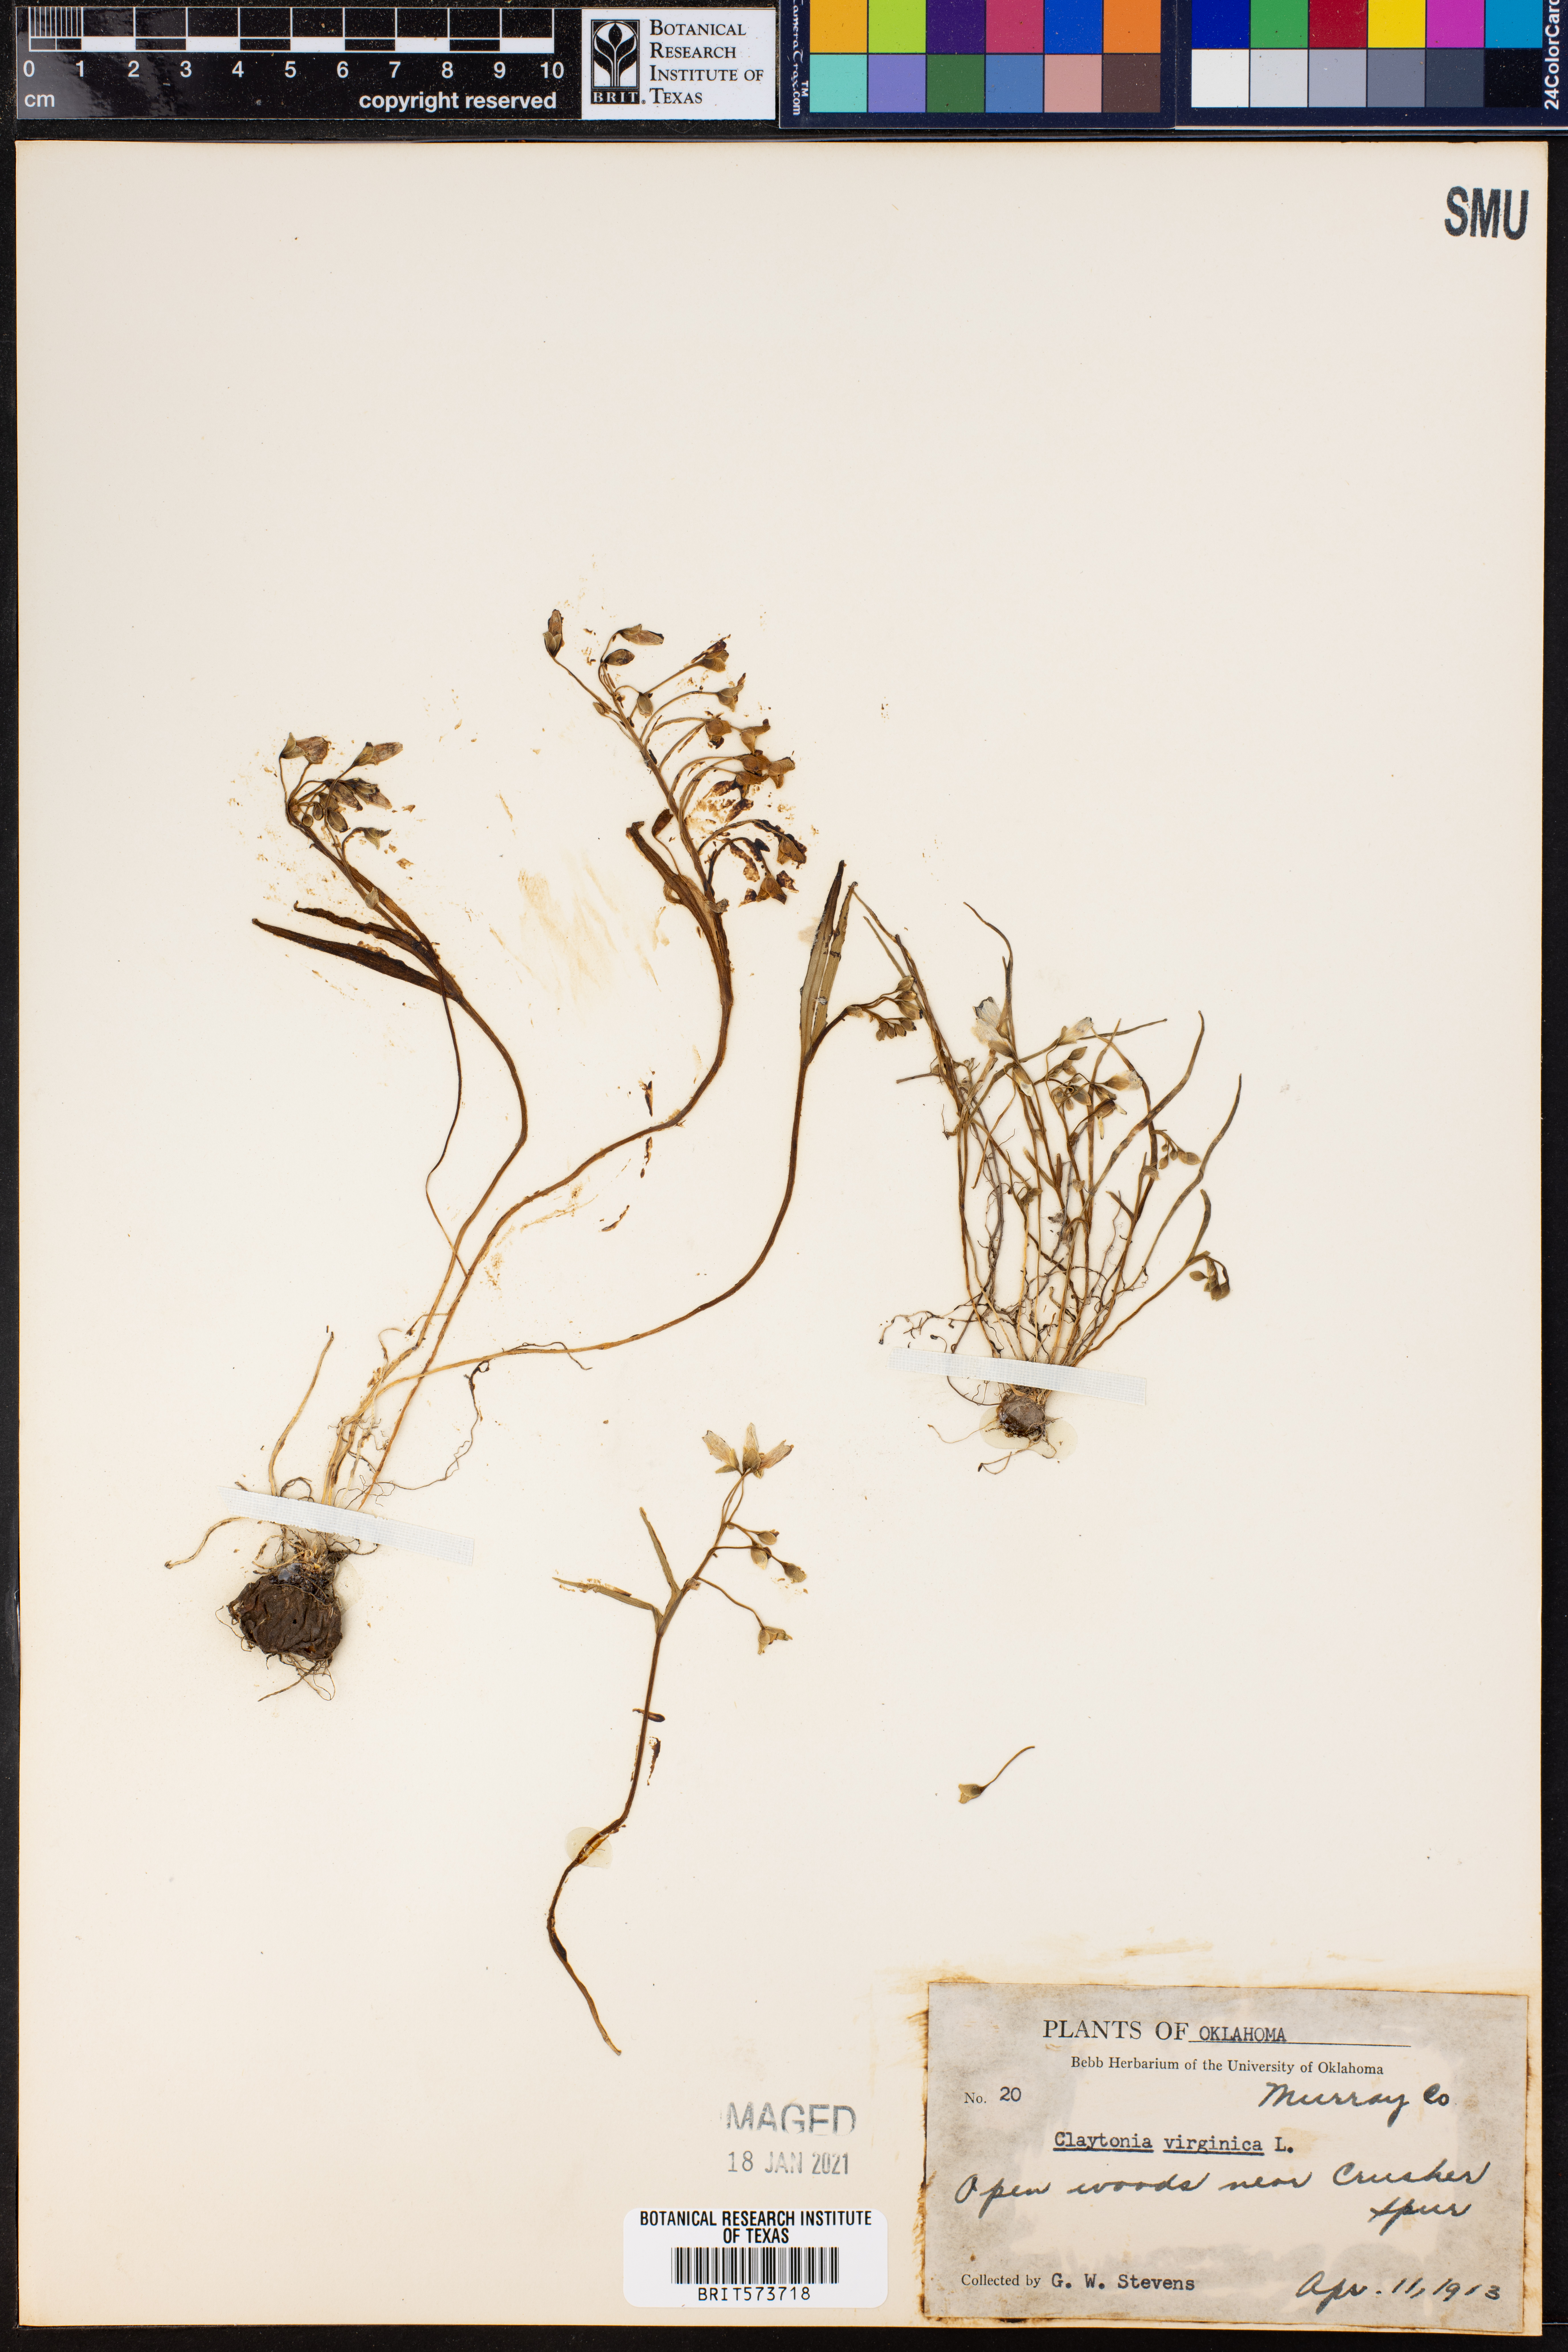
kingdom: Plantae
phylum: Tracheophyta
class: Magnoliopsida
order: Caryophyllales
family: Montiaceae
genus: Claytonia
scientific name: Claytonia virginica
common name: Virginia springbeauty
